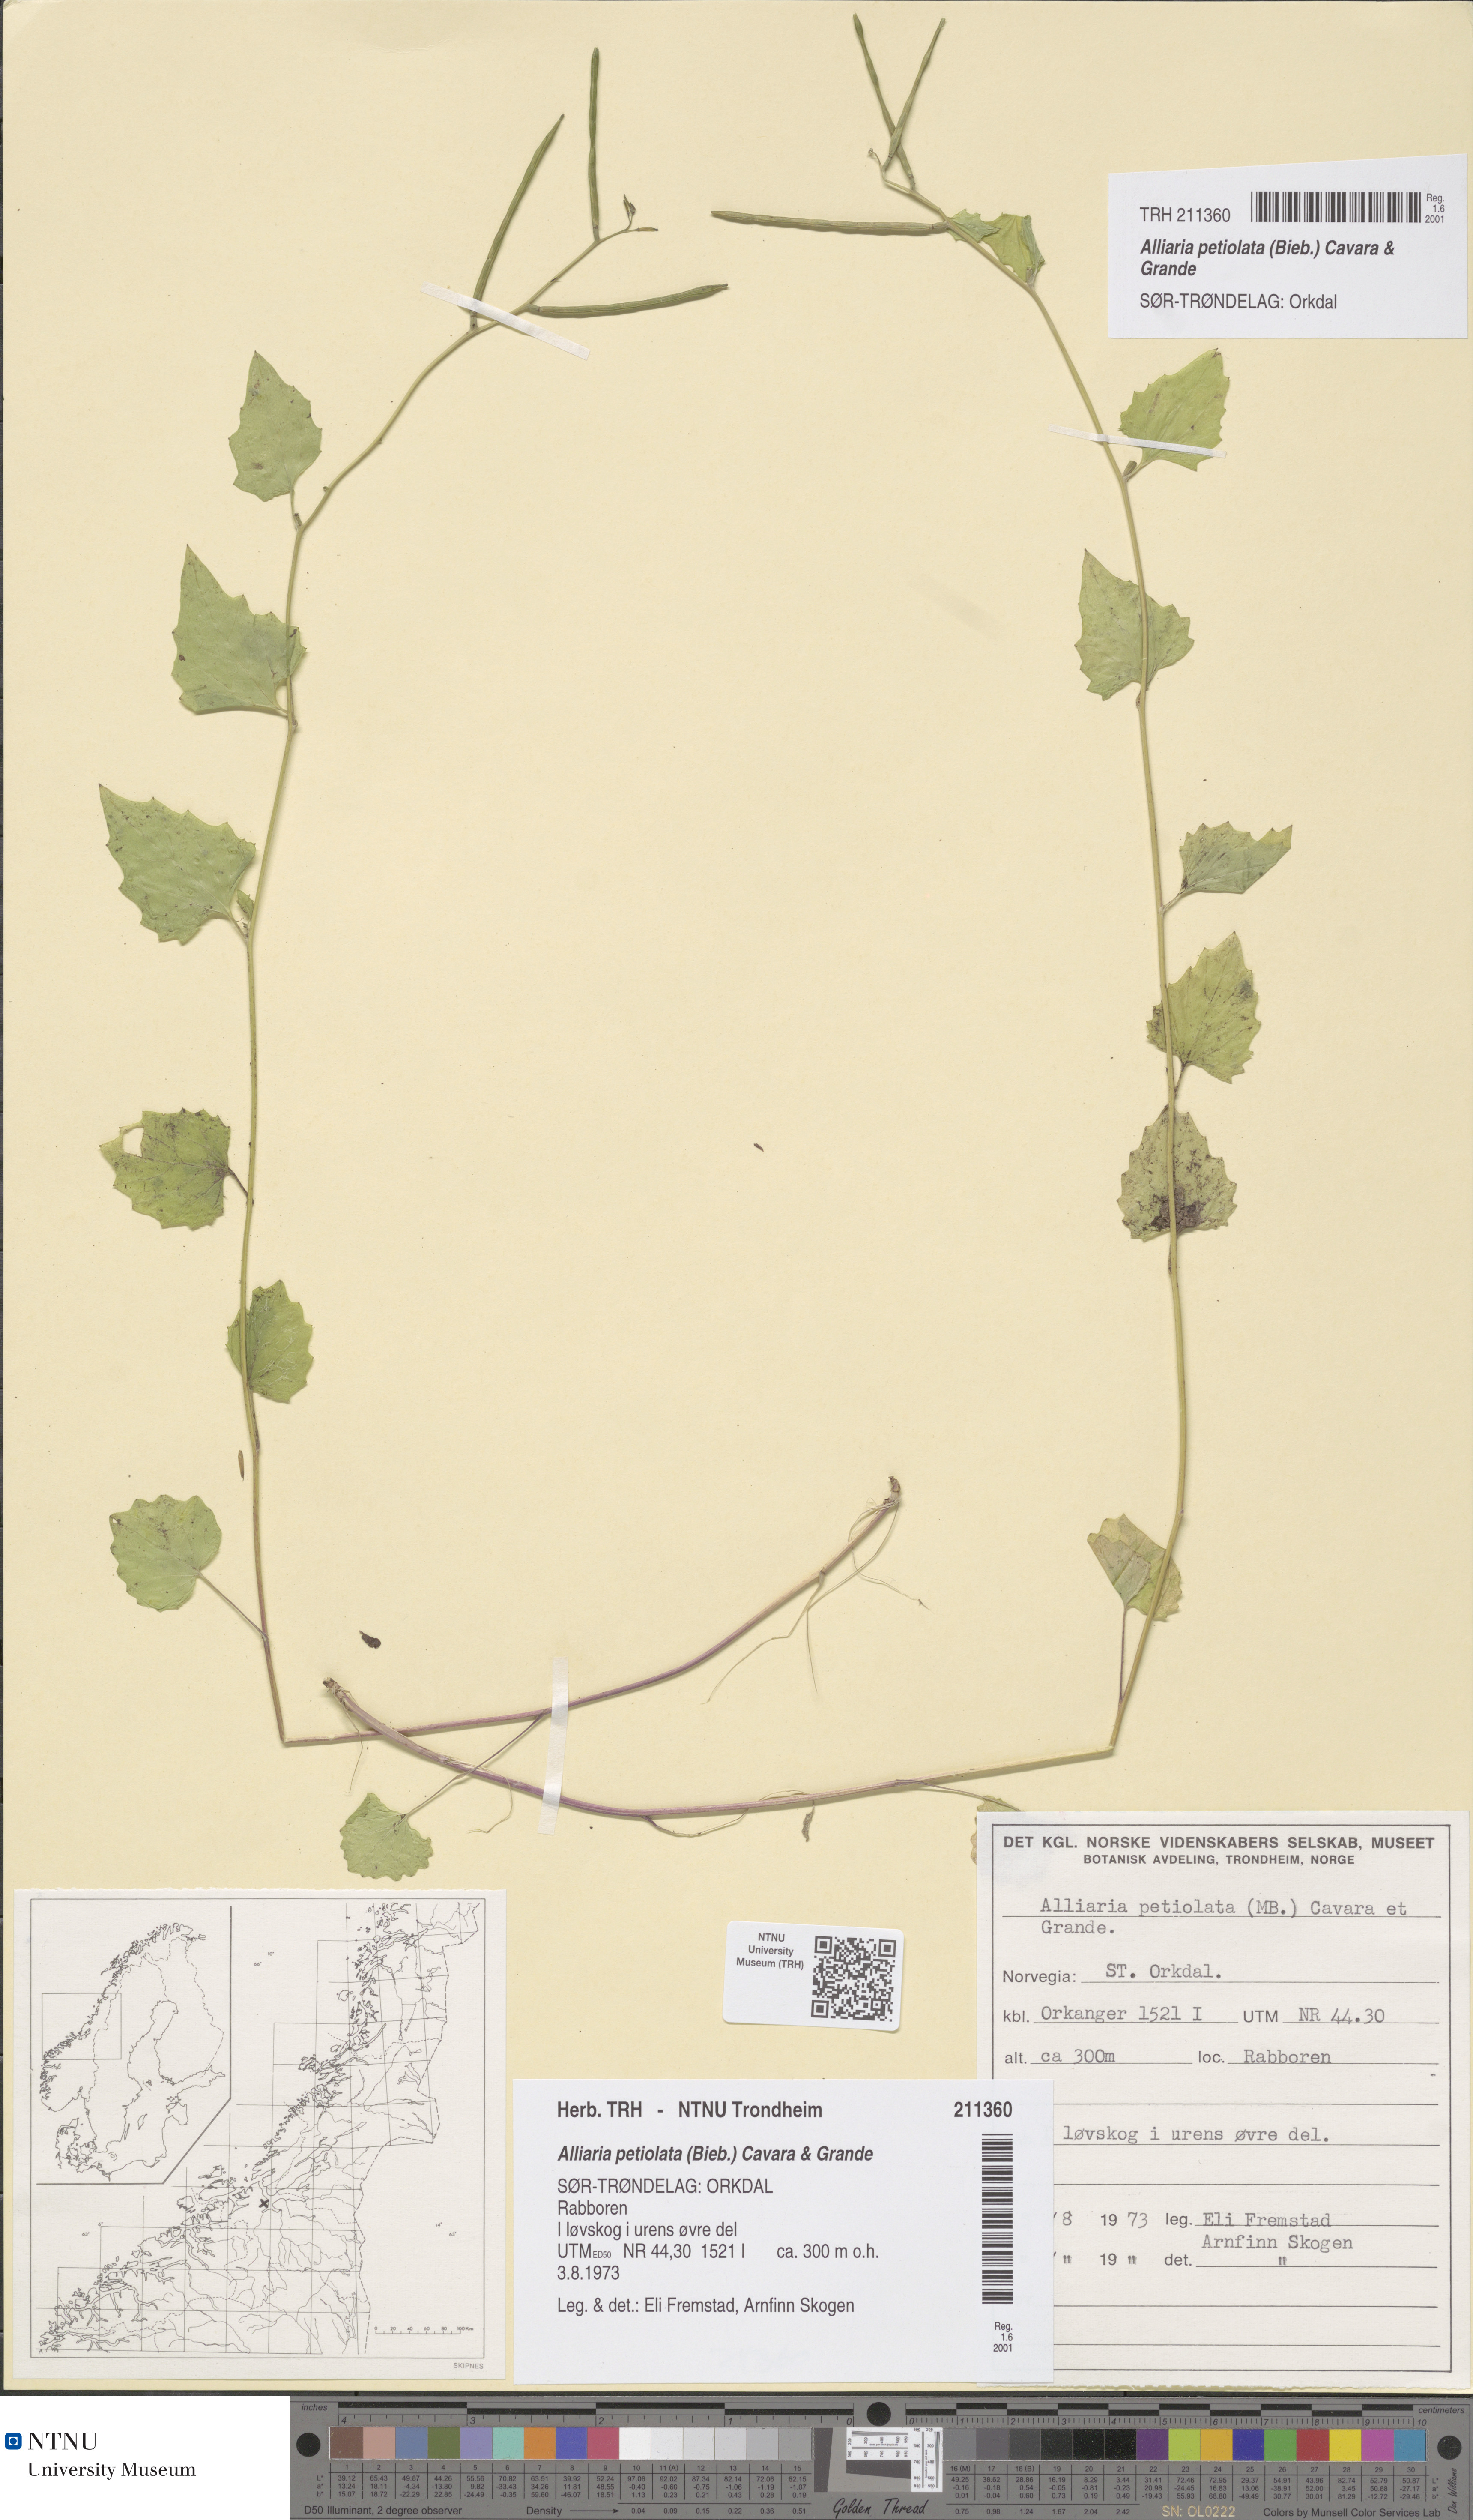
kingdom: Plantae
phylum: Tracheophyta
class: Magnoliopsida
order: Brassicales
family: Brassicaceae
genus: Alliaria
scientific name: Alliaria petiolata
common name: Garlic mustard
